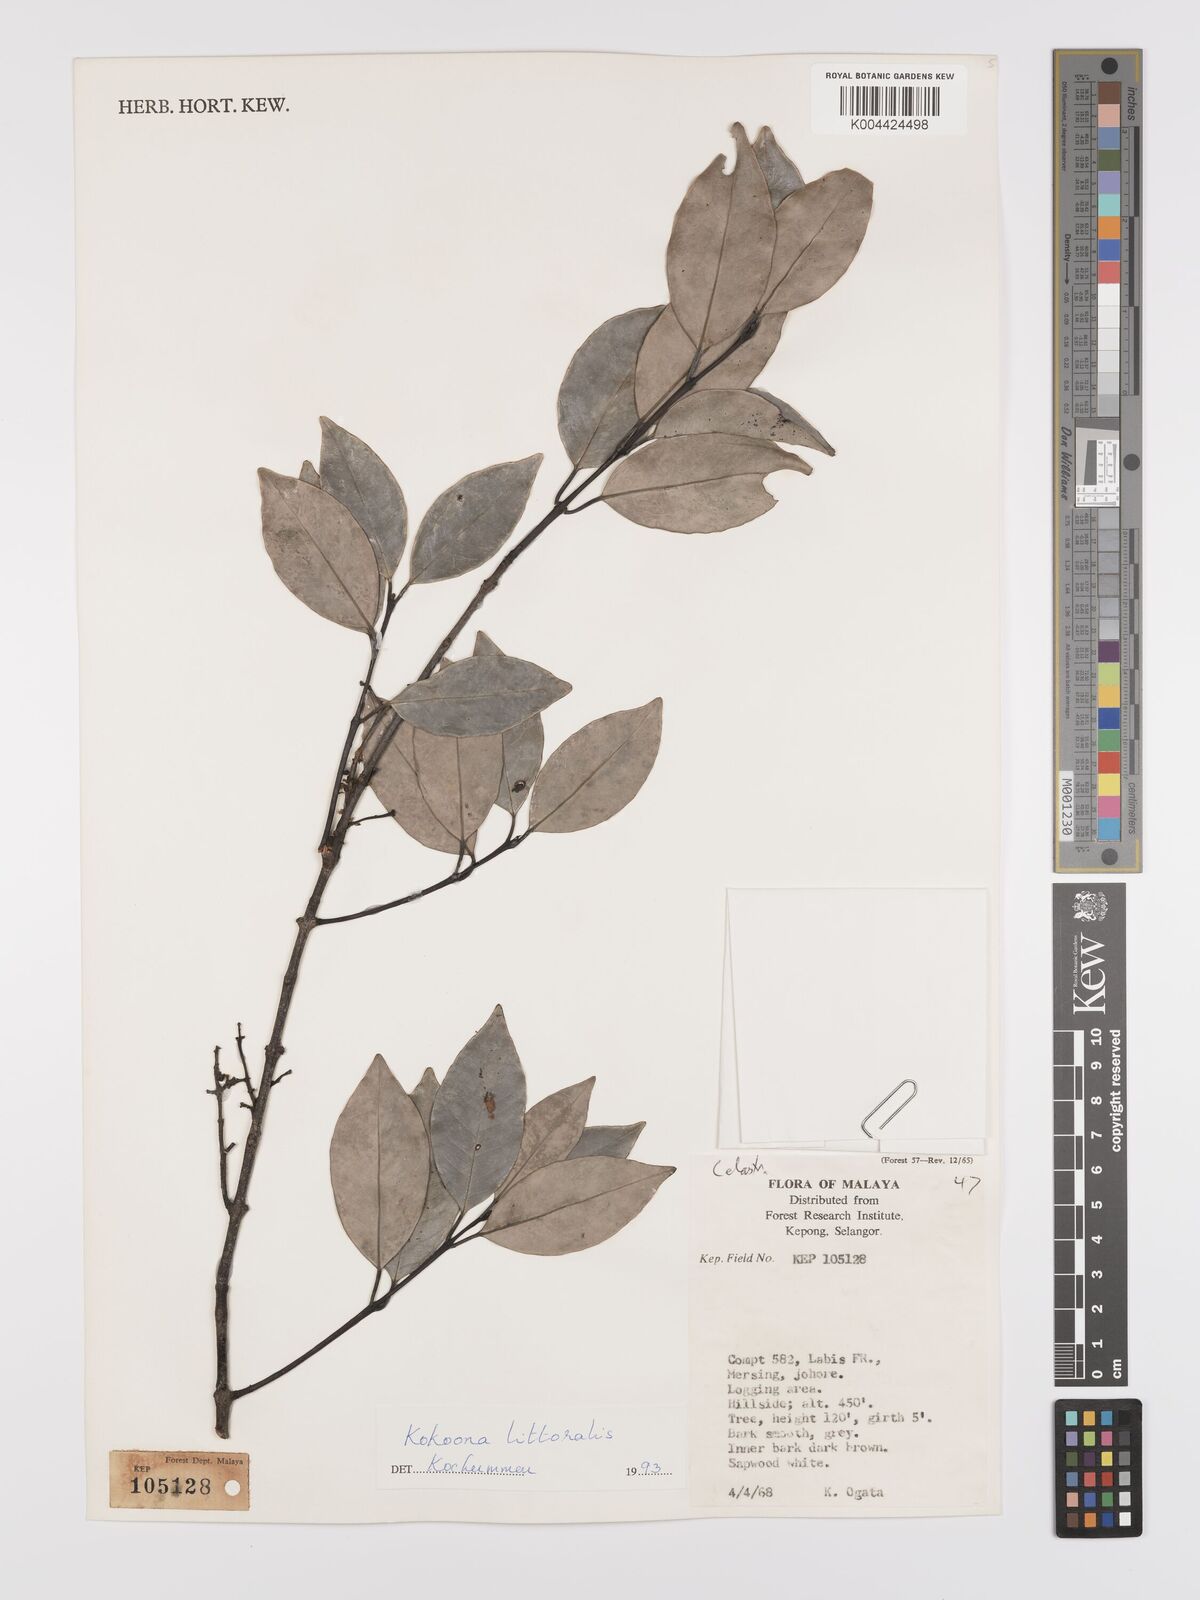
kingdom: Plantae
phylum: Tracheophyta
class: Magnoliopsida
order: Celastrales
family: Celastraceae
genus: Kokoona
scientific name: Kokoona littoralis
